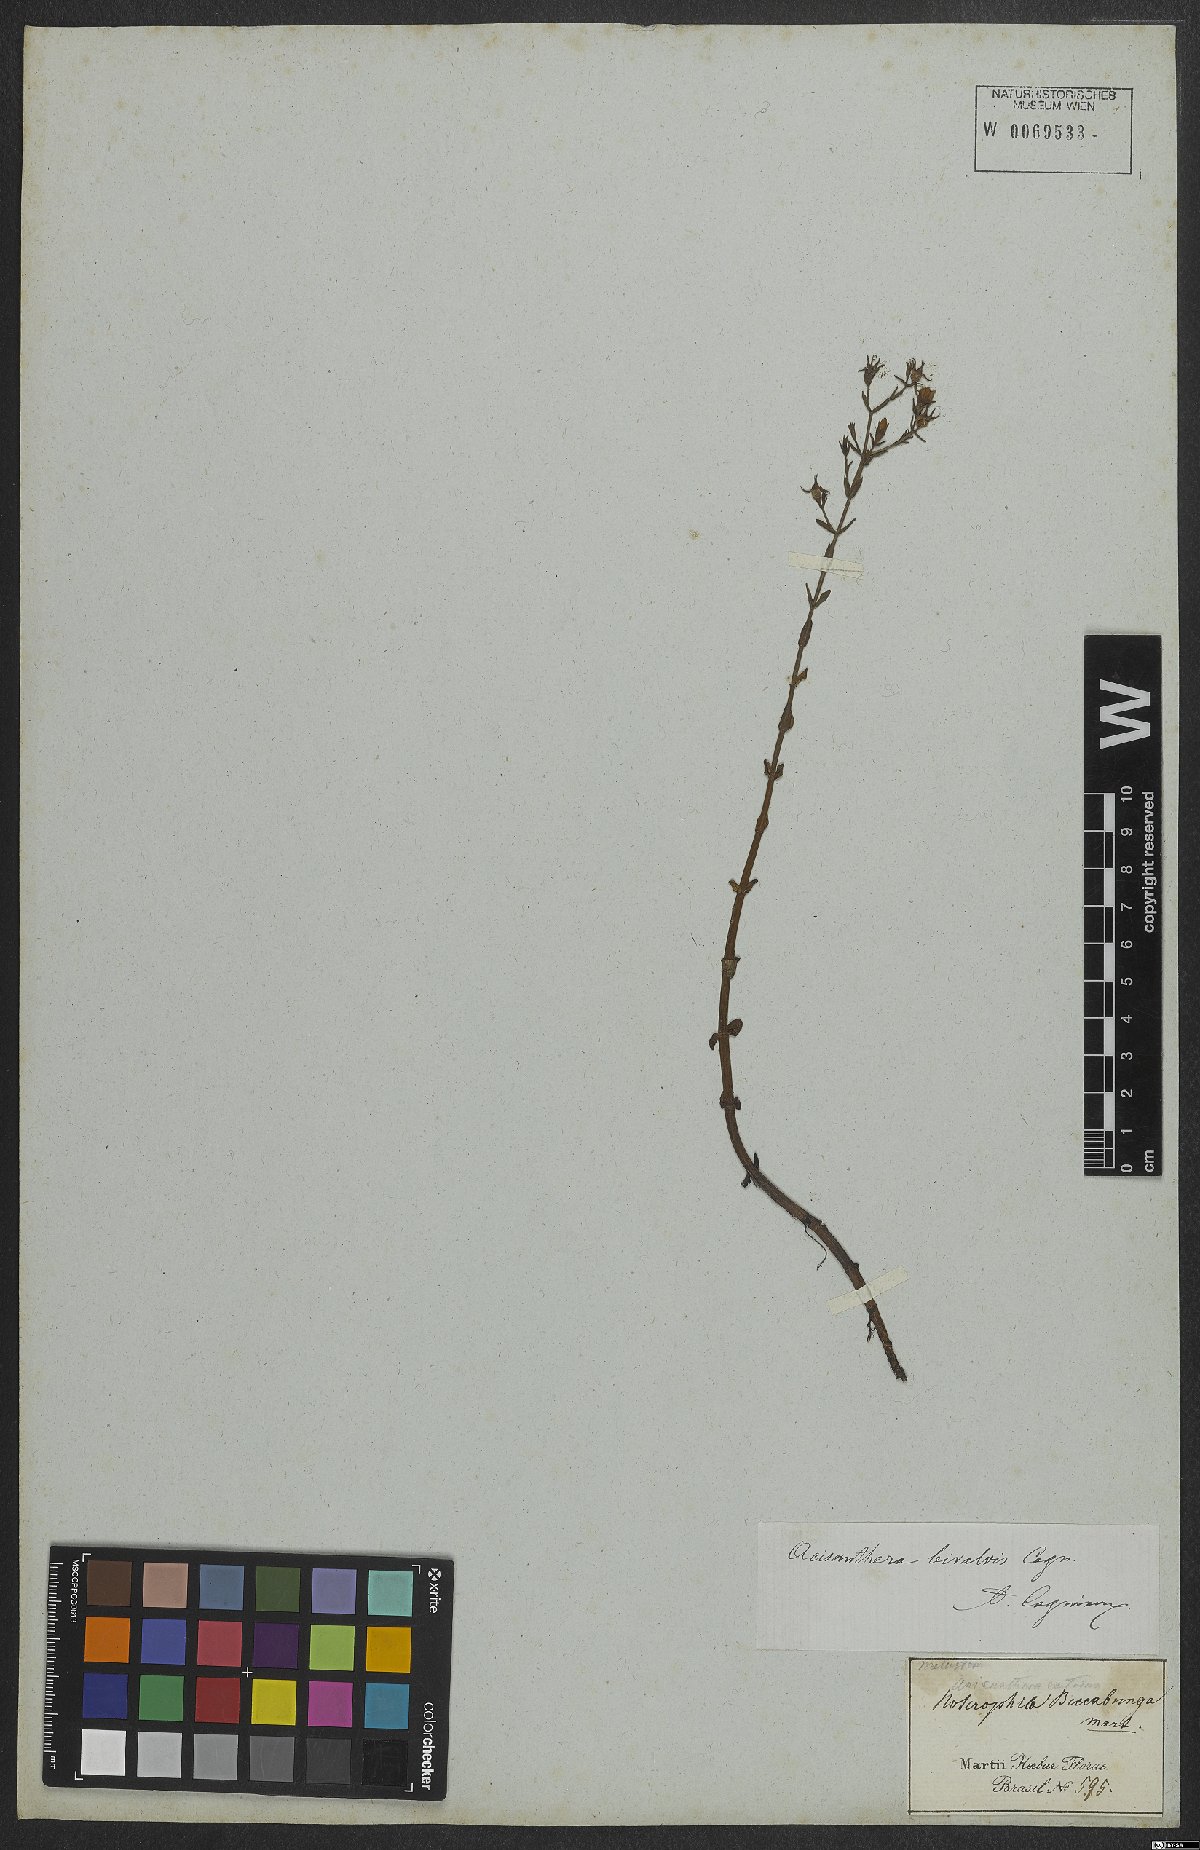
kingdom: Plantae
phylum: Tracheophyta
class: Magnoliopsida
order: Myrtales
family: Melastomataceae
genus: Noterophila
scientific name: Noterophila bivalvis
